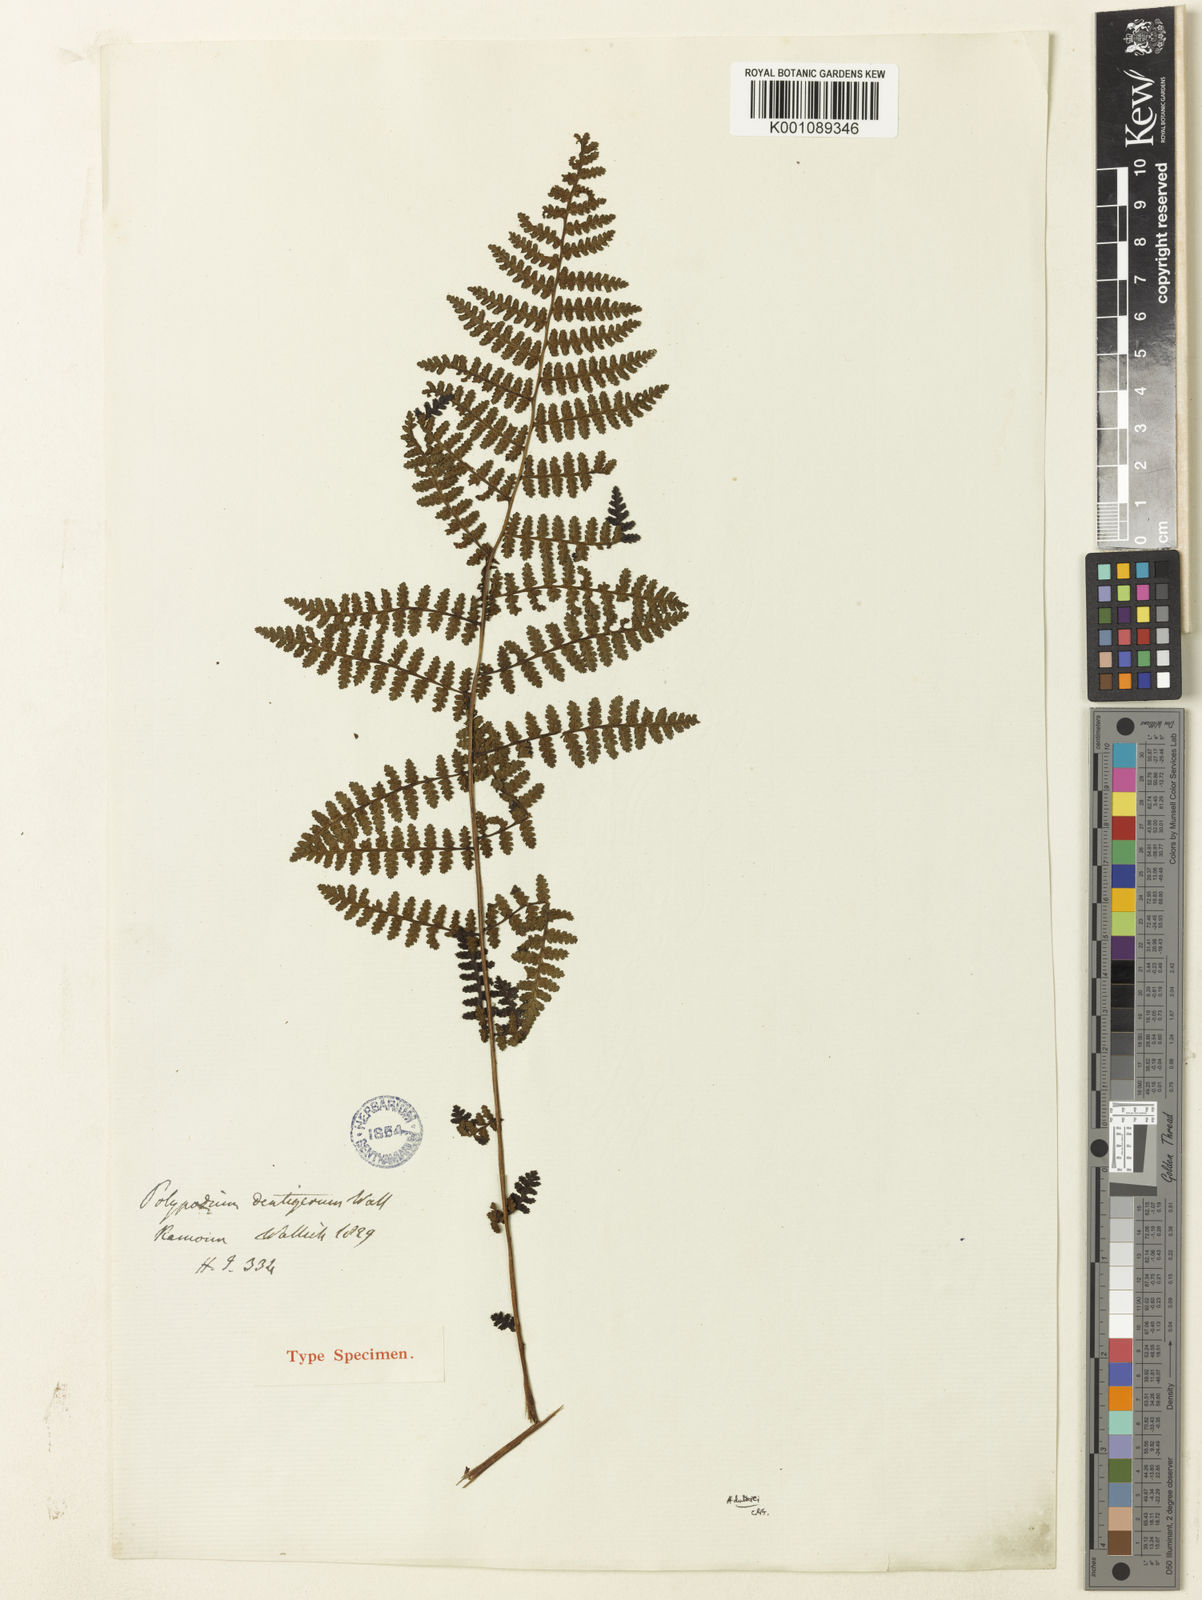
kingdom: Plantae
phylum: Tracheophyta
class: Polypodiopsida
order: Polypodiales
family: Athyriaceae
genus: Athyrium
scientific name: Athyrium
